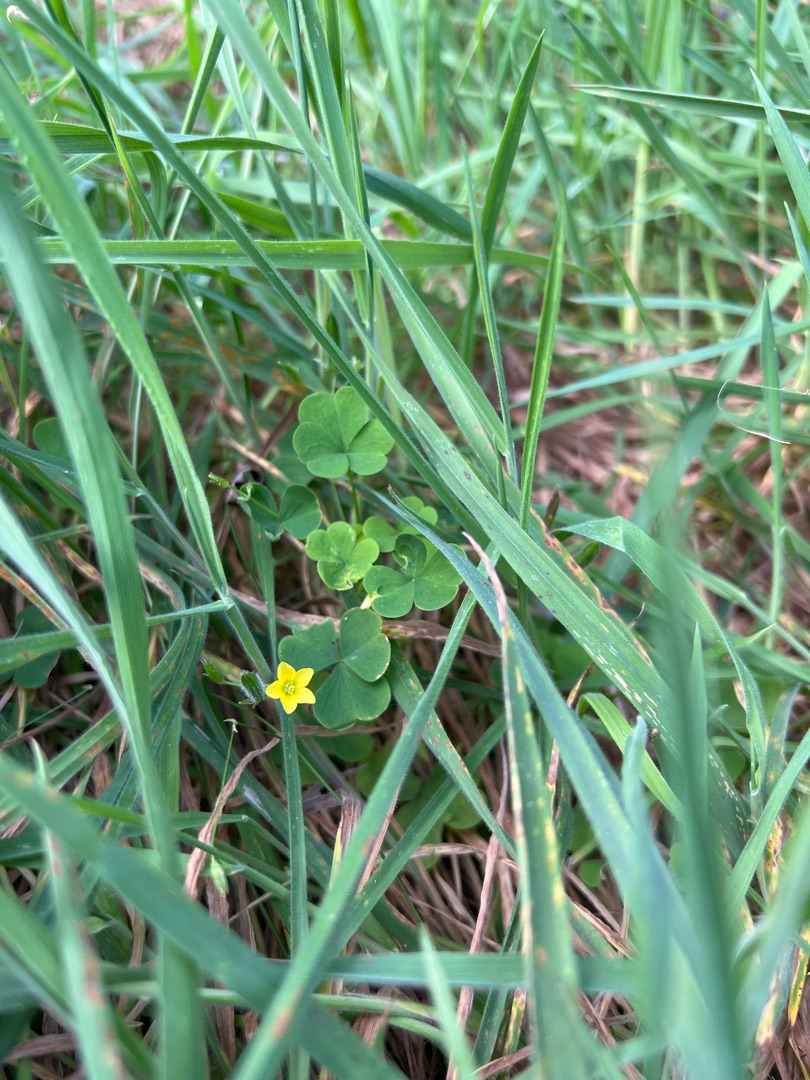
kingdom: Plantae
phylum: Tracheophyta
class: Magnoliopsida
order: Oxalidales
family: Oxalidaceae
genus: Oxalis
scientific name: Oxalis stricta
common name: Rank surkløver
